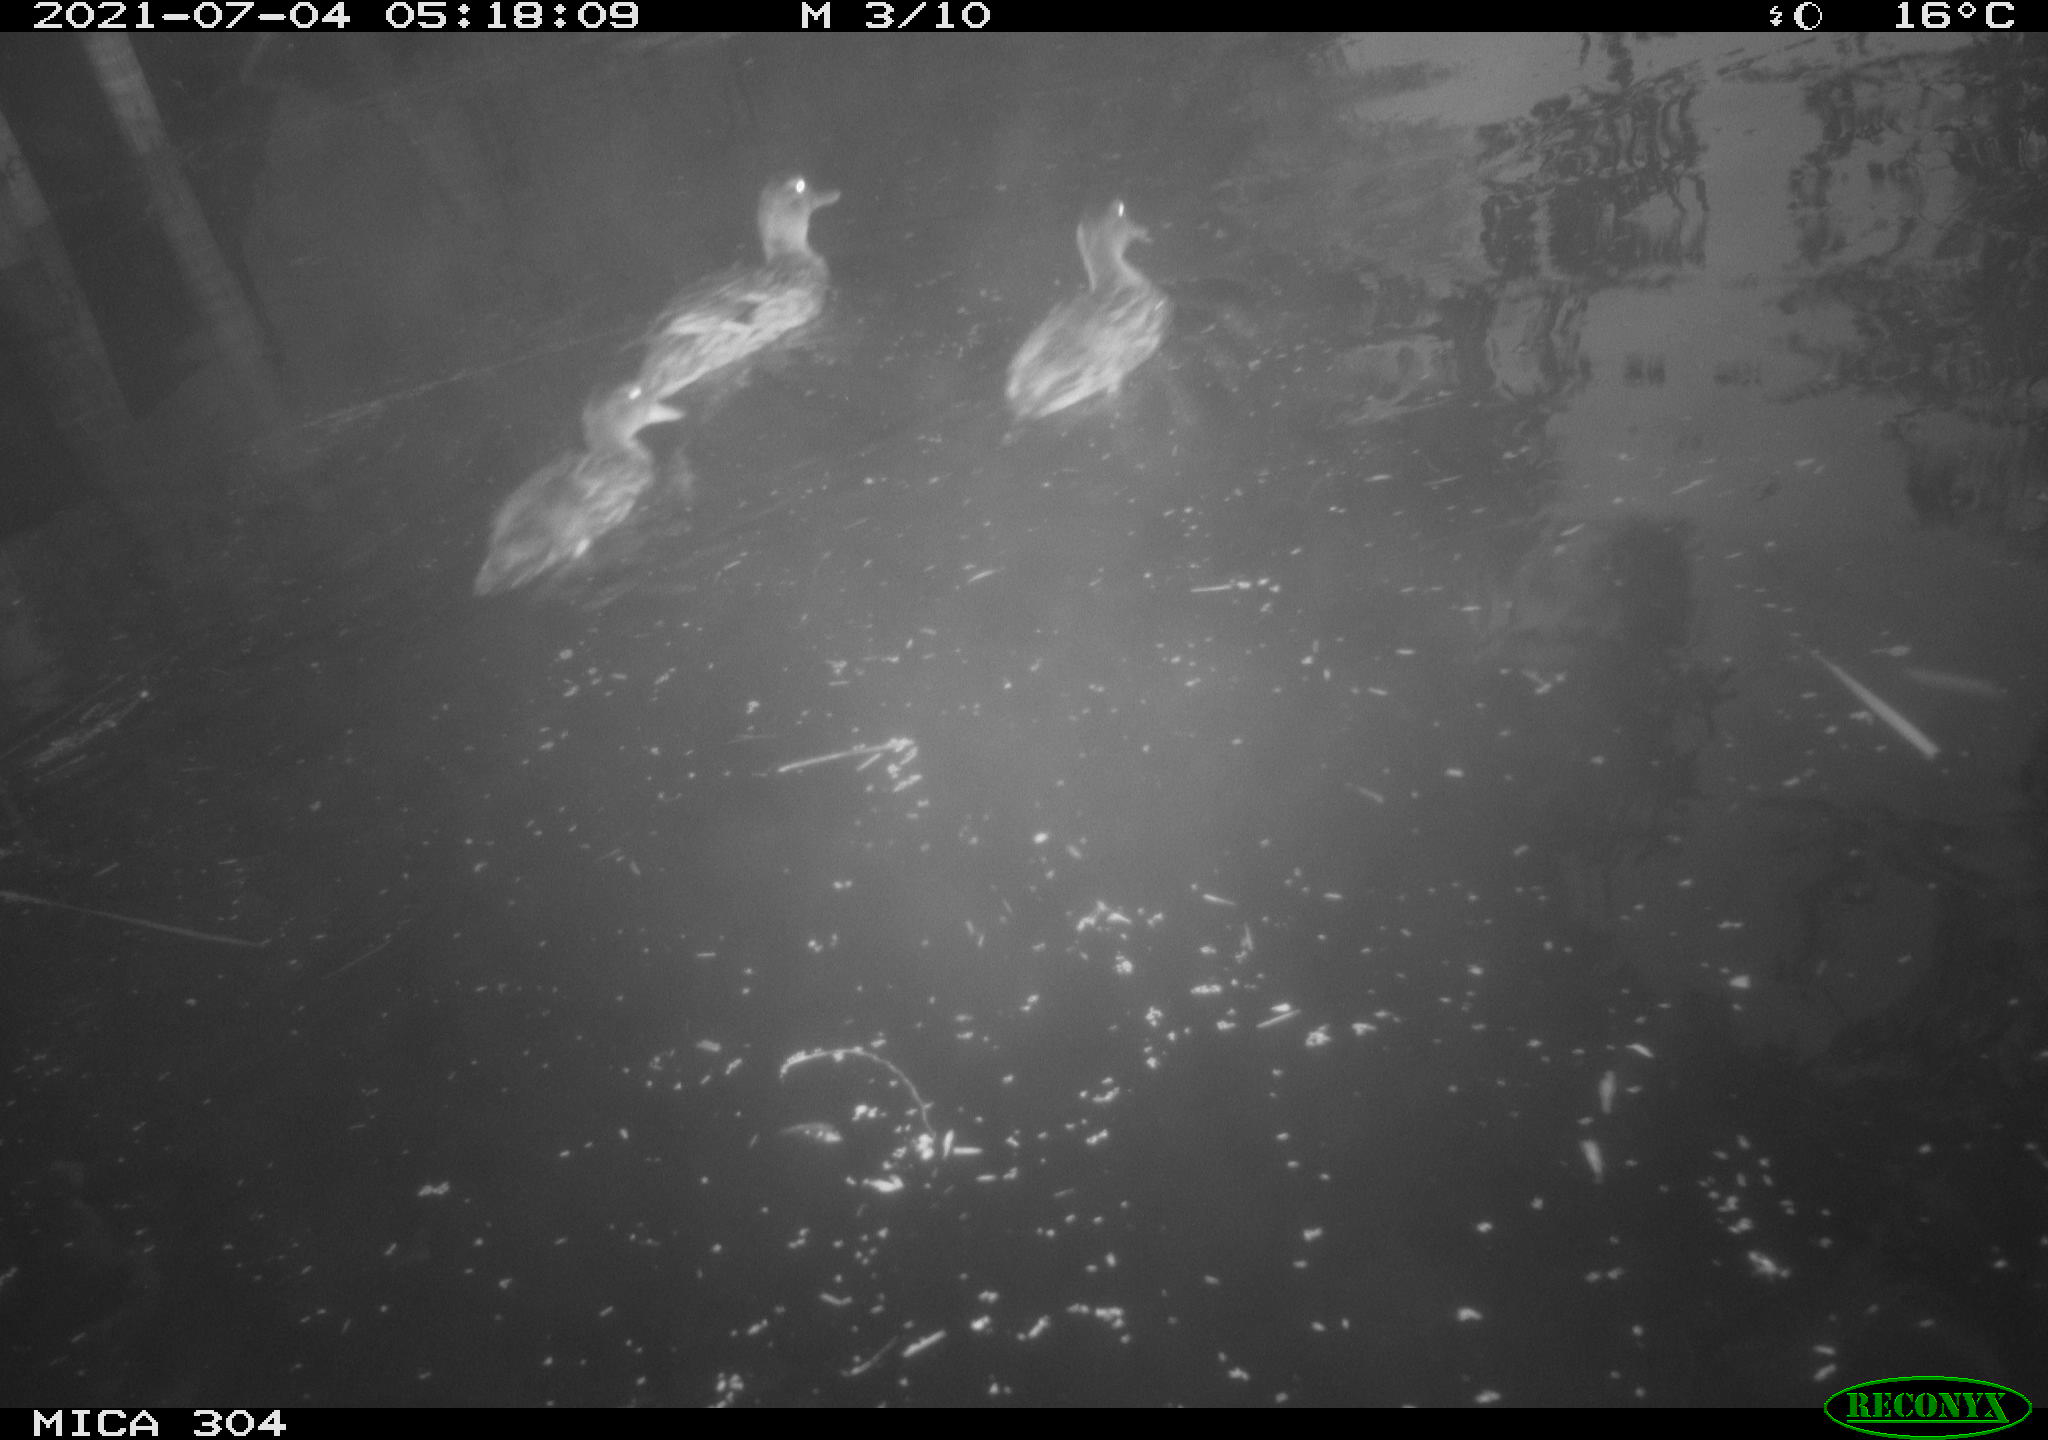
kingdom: Animalia
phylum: Chordata
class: Aves
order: Anseriformes
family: Anatidae
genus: Anas
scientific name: Anas platyrhynchos
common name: Mallard
